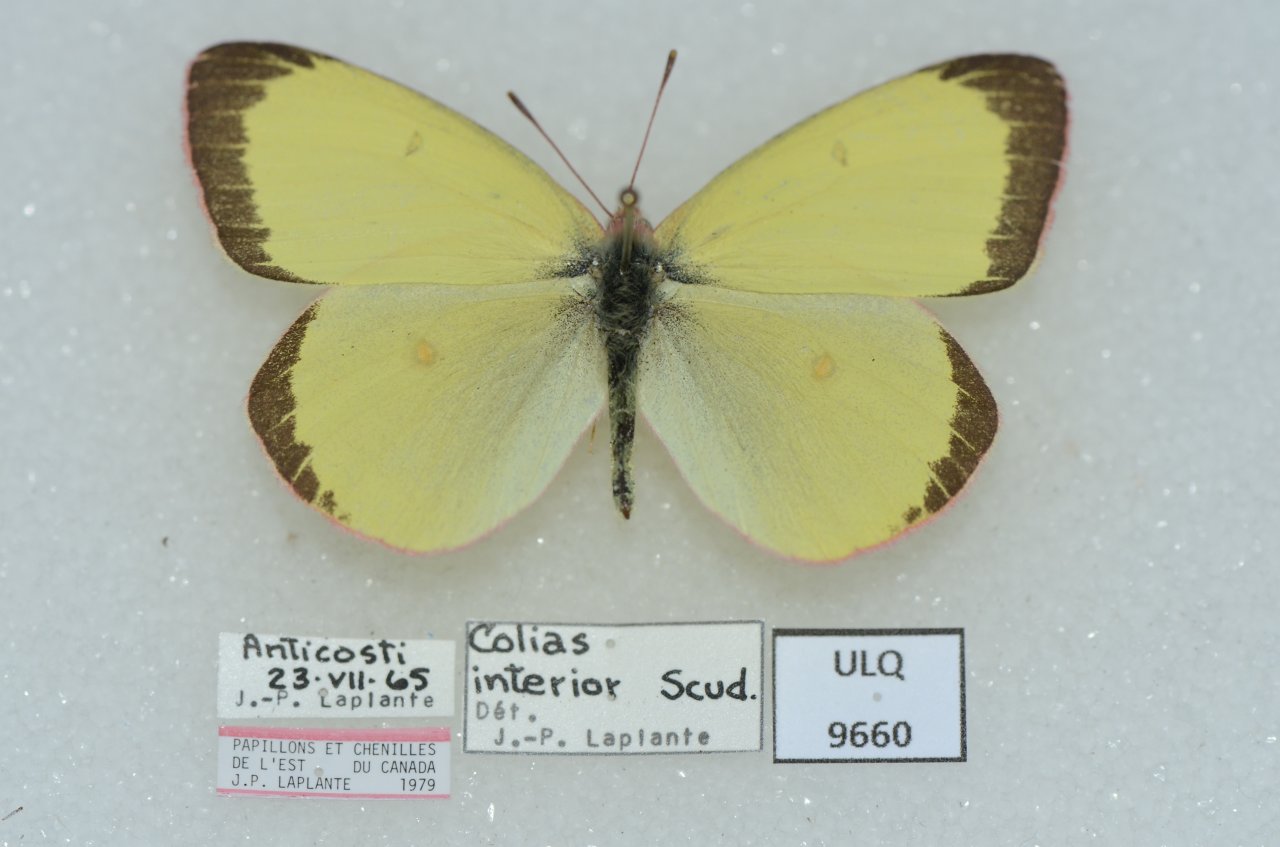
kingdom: Animalia
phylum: Arthropoda
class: Insecta
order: Lepidoptera
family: Pieridae
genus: Colias
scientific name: Colias interior
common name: Pink-edged Sulphur
